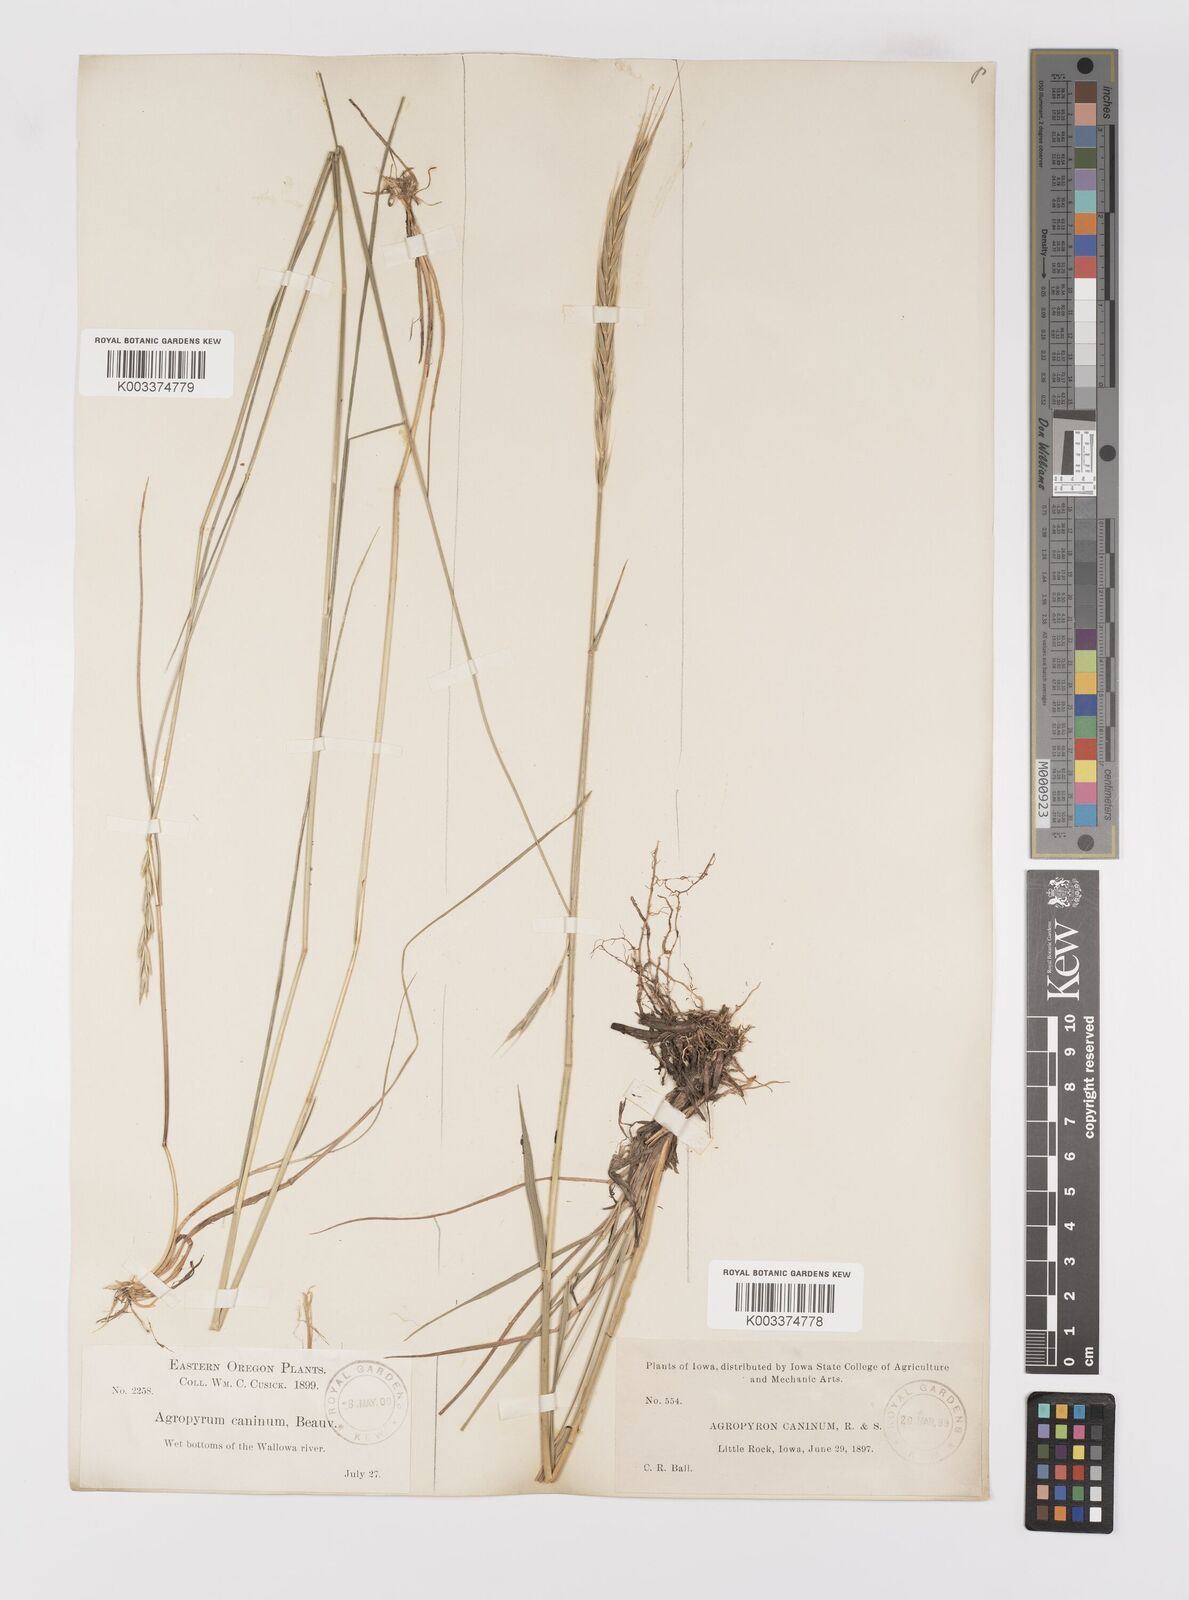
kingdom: Plantae
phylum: Tracheophyta
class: Liliopsida
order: Poales
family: Poaceae
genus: Elymus
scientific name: Elymus violaceus
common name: Arctic wheatgrass
